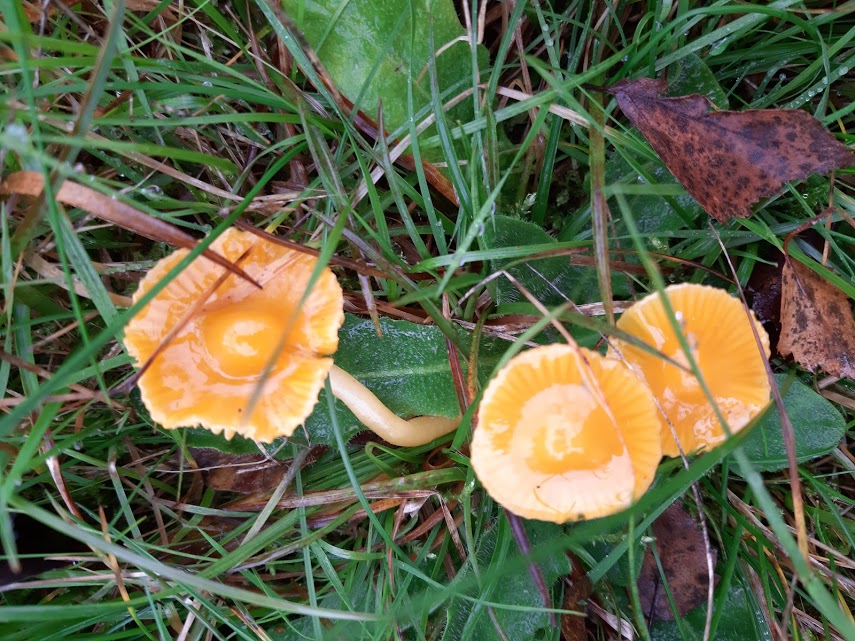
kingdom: Fungi
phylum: Basidiomycota
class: Agaricomycetes
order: Agaricales
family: Hygrophoraceae
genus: Gliophorus
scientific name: Gliophorus psittacinus
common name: papegøje-vokshat
